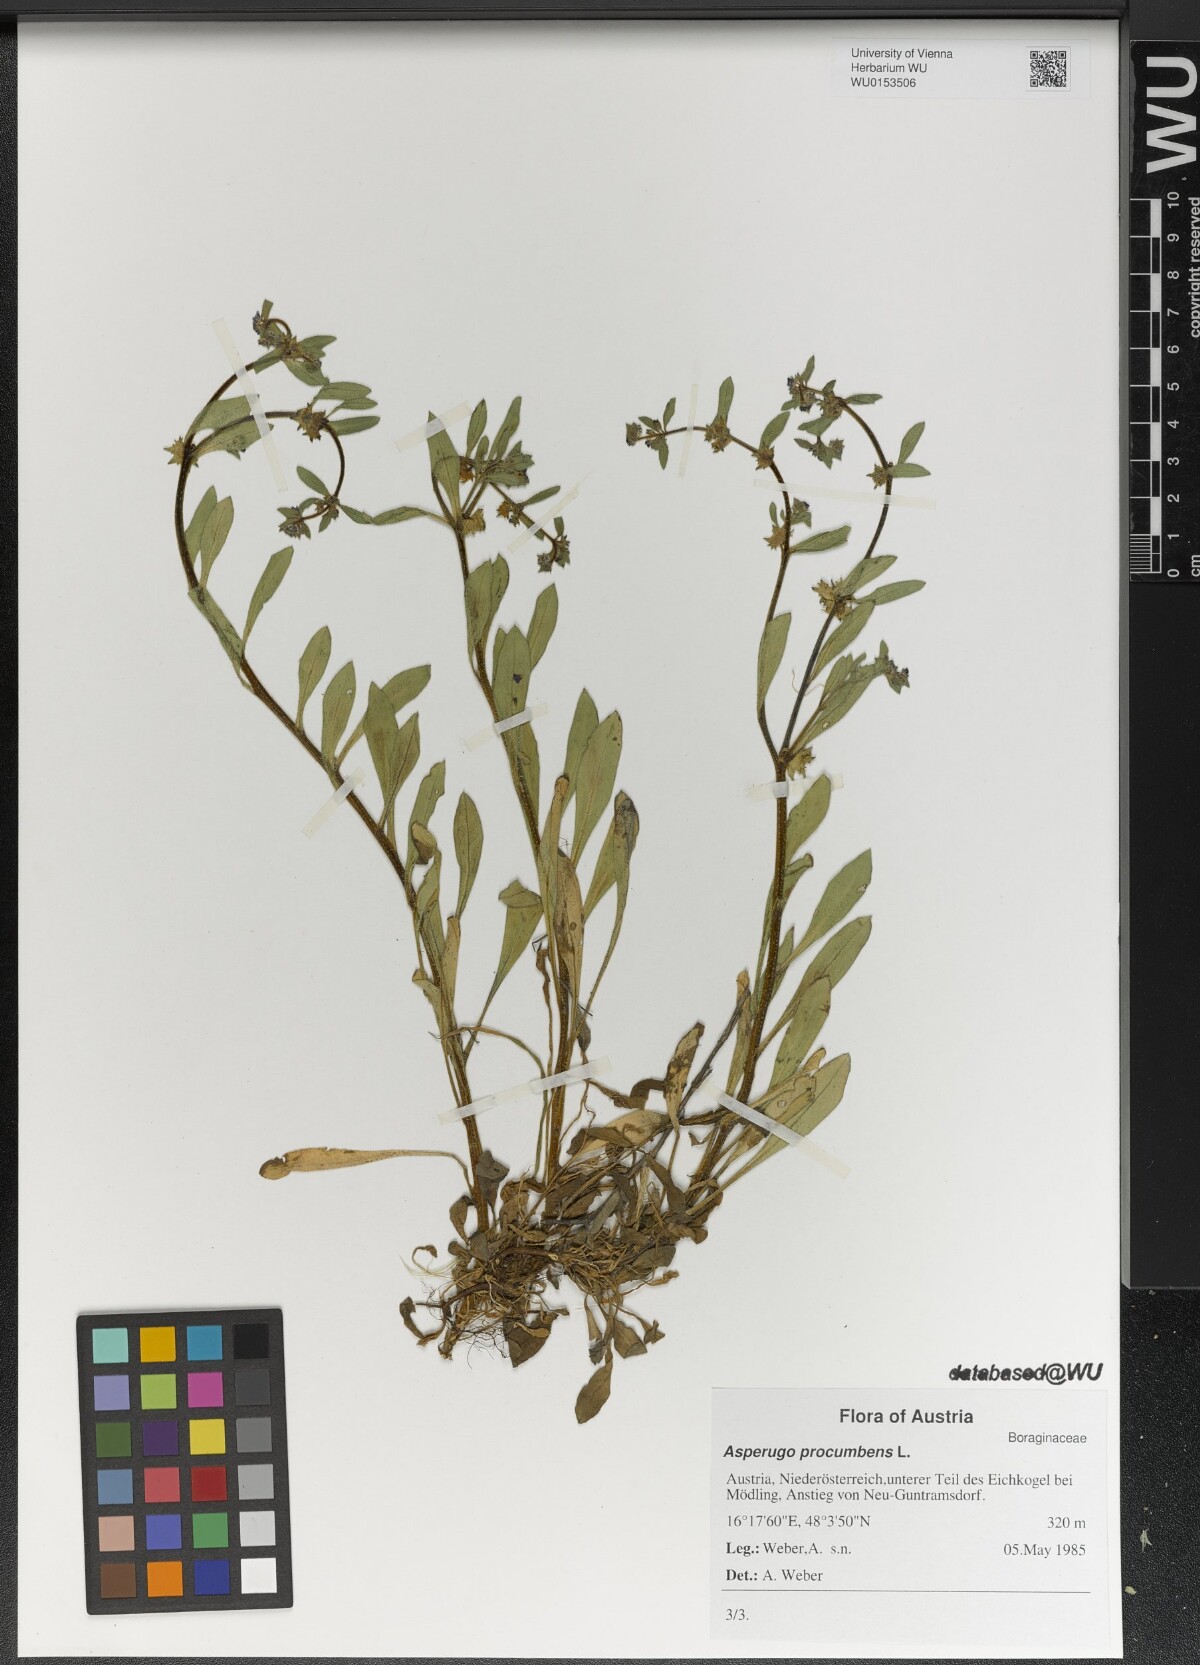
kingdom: Plantae
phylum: Tracheophyta
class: Magnoliopsida
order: Boraginales
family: Boraginaceae
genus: Asperugo
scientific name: Asperugo procumbens
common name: Madwort
